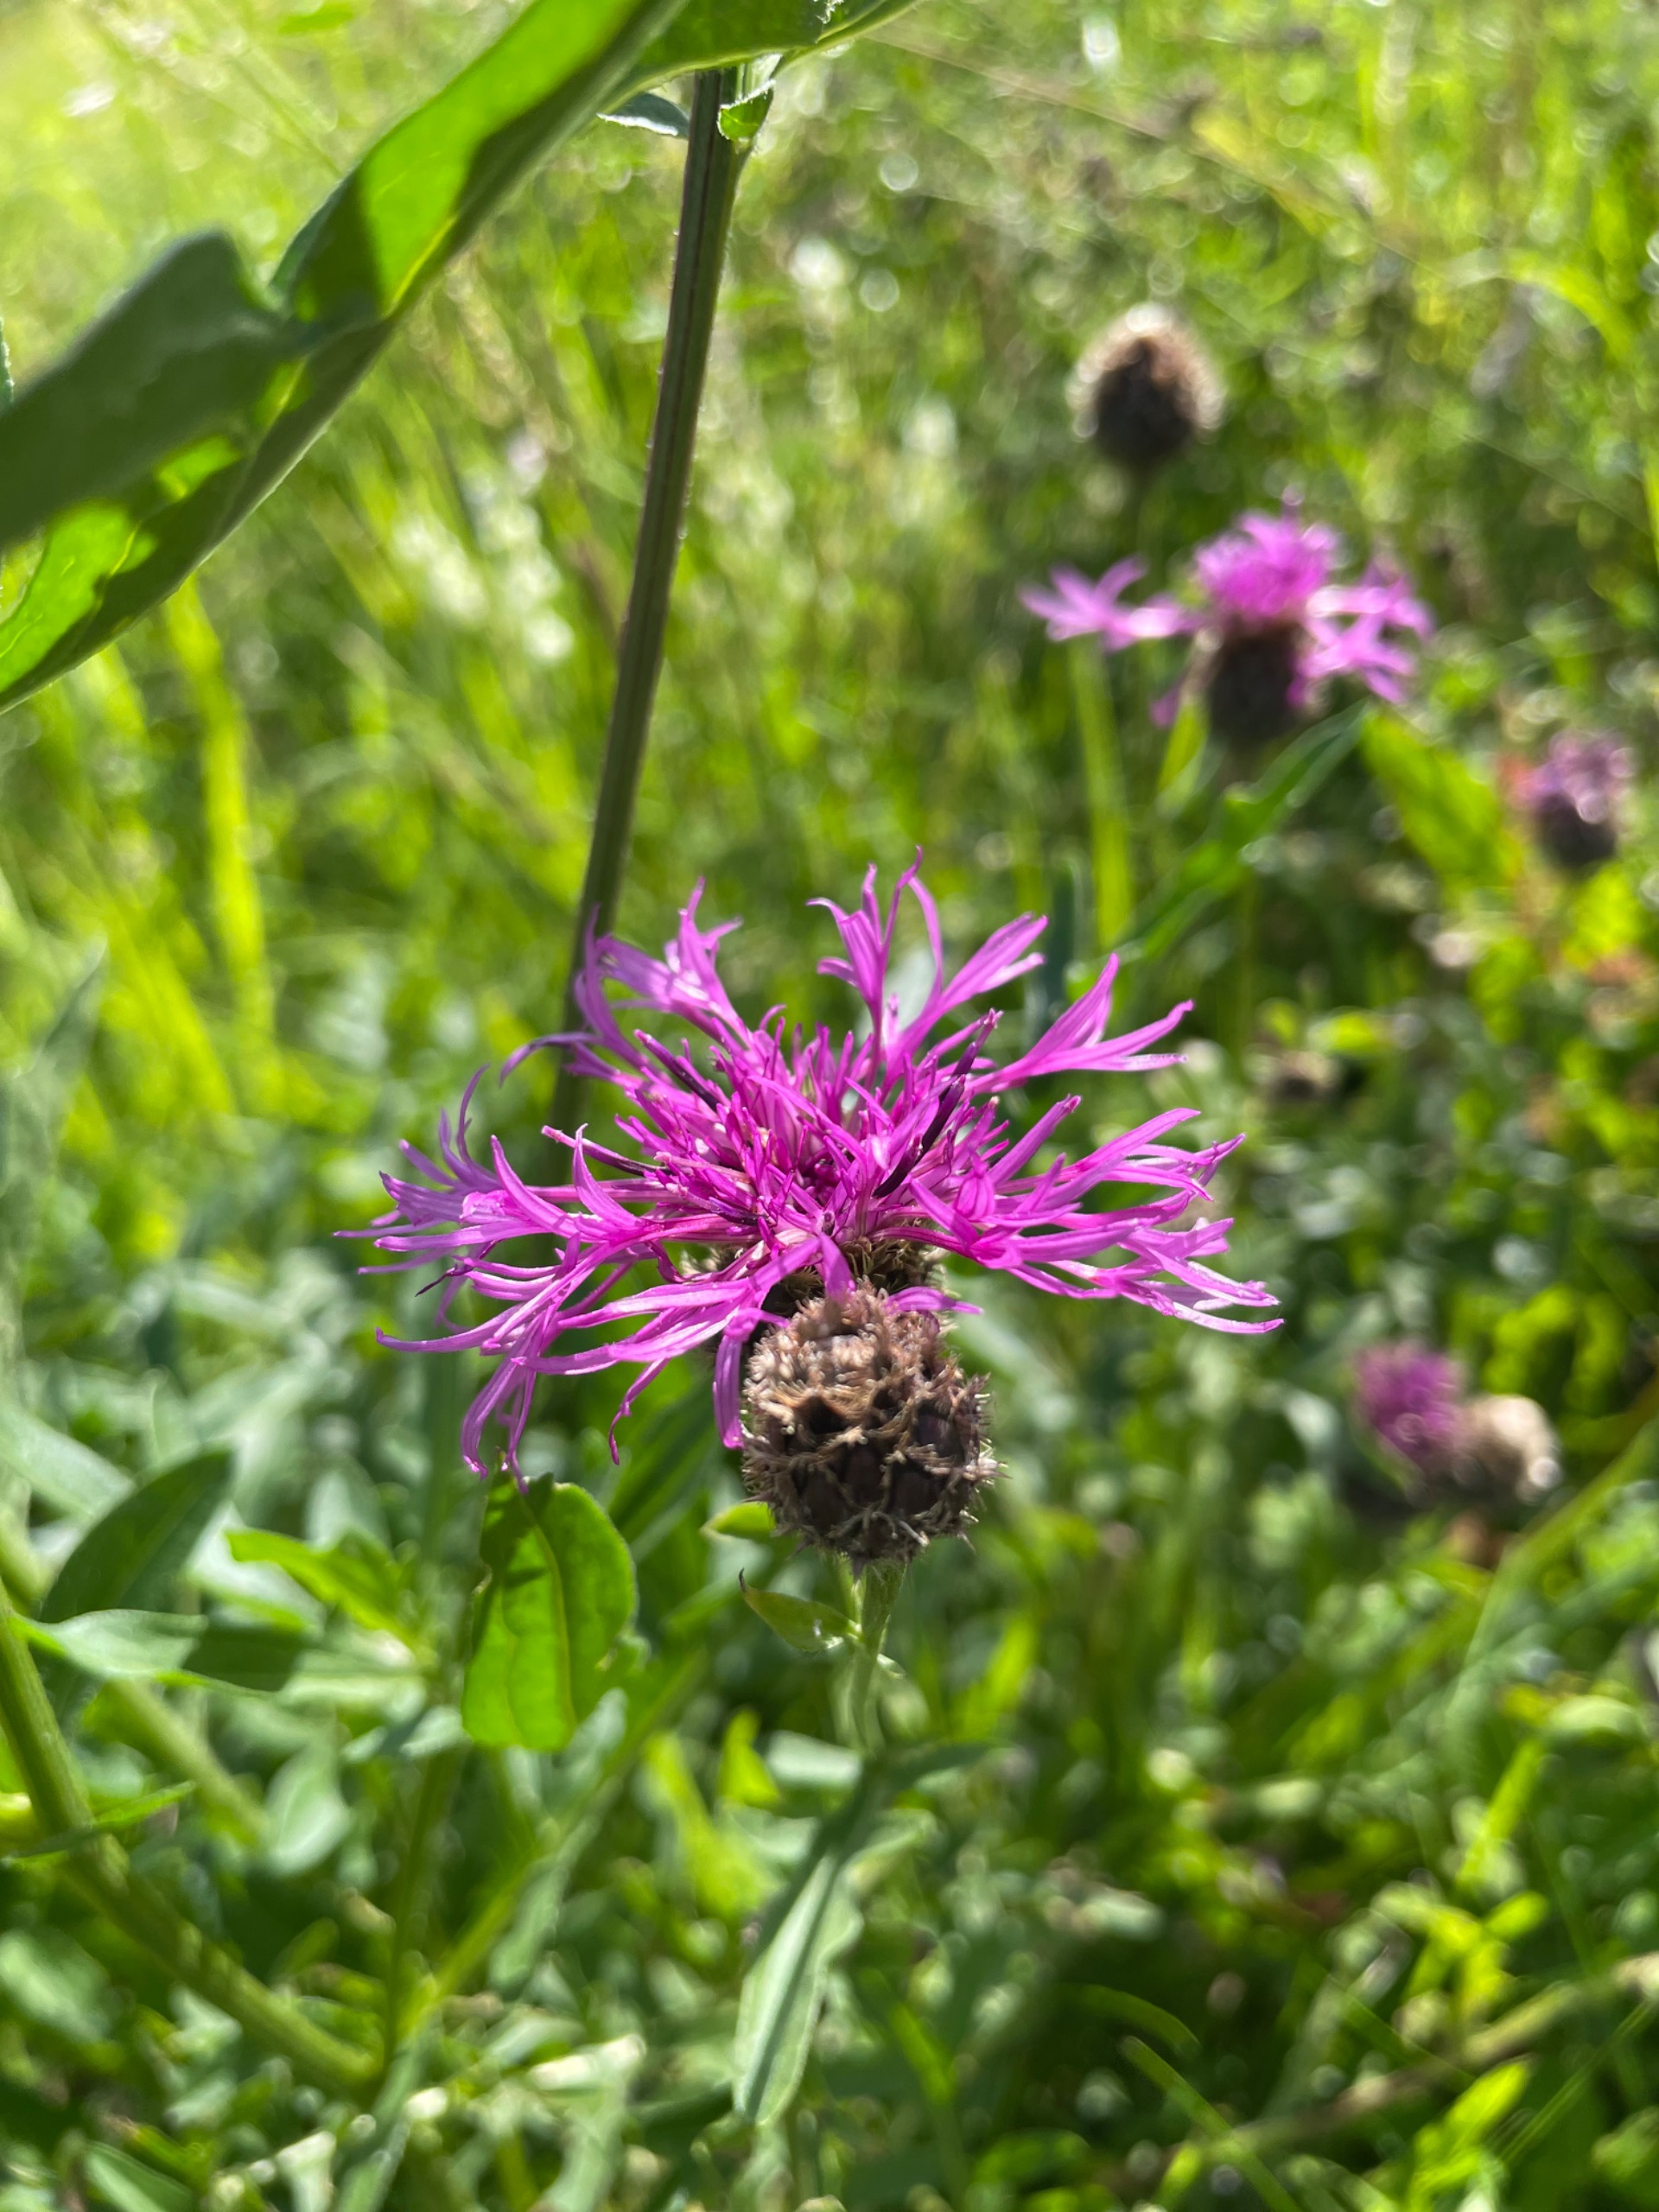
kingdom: Plantae
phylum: Tracheophyta
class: Magnoliopsida
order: Asterales
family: Asteraceae
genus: Centaurea
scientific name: Centaurea scabiosa
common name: Stor knopurt
